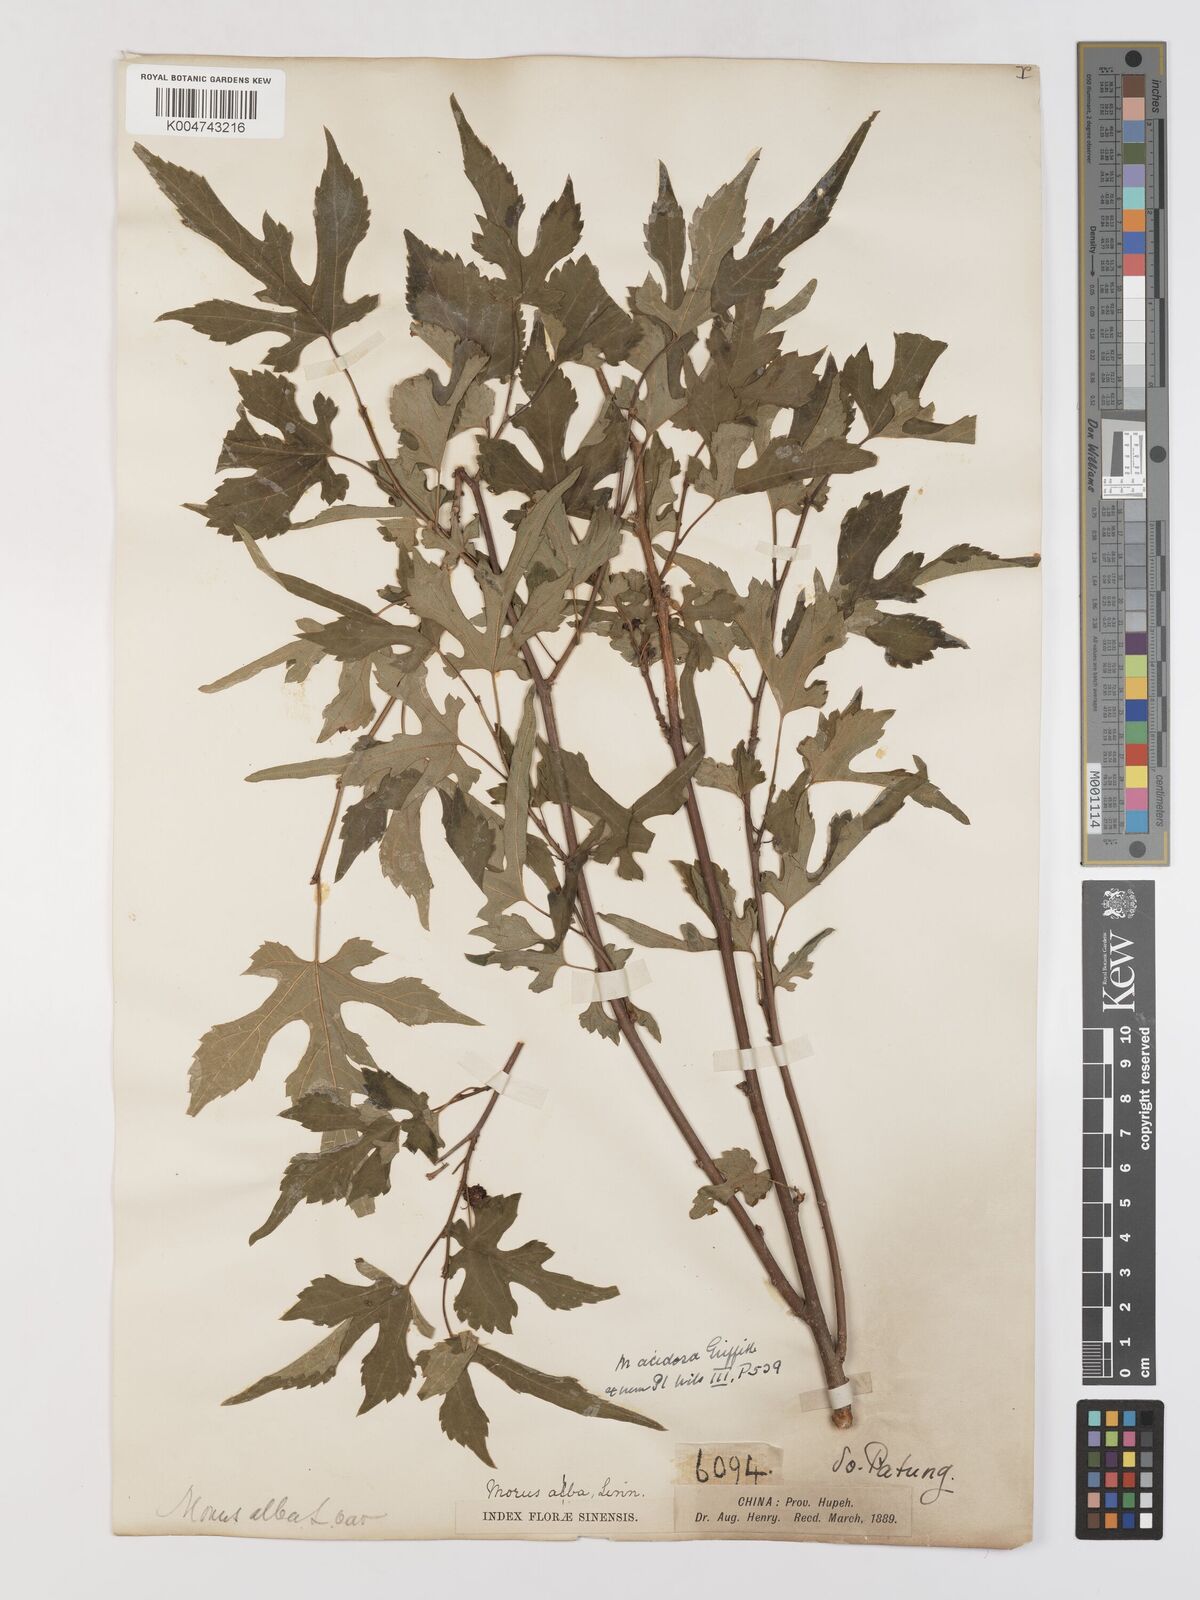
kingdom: Plantae
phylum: Tracheophyta
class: Magnoliopsida
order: Rosales
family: Moraceae
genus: Morus
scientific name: Morus indica
